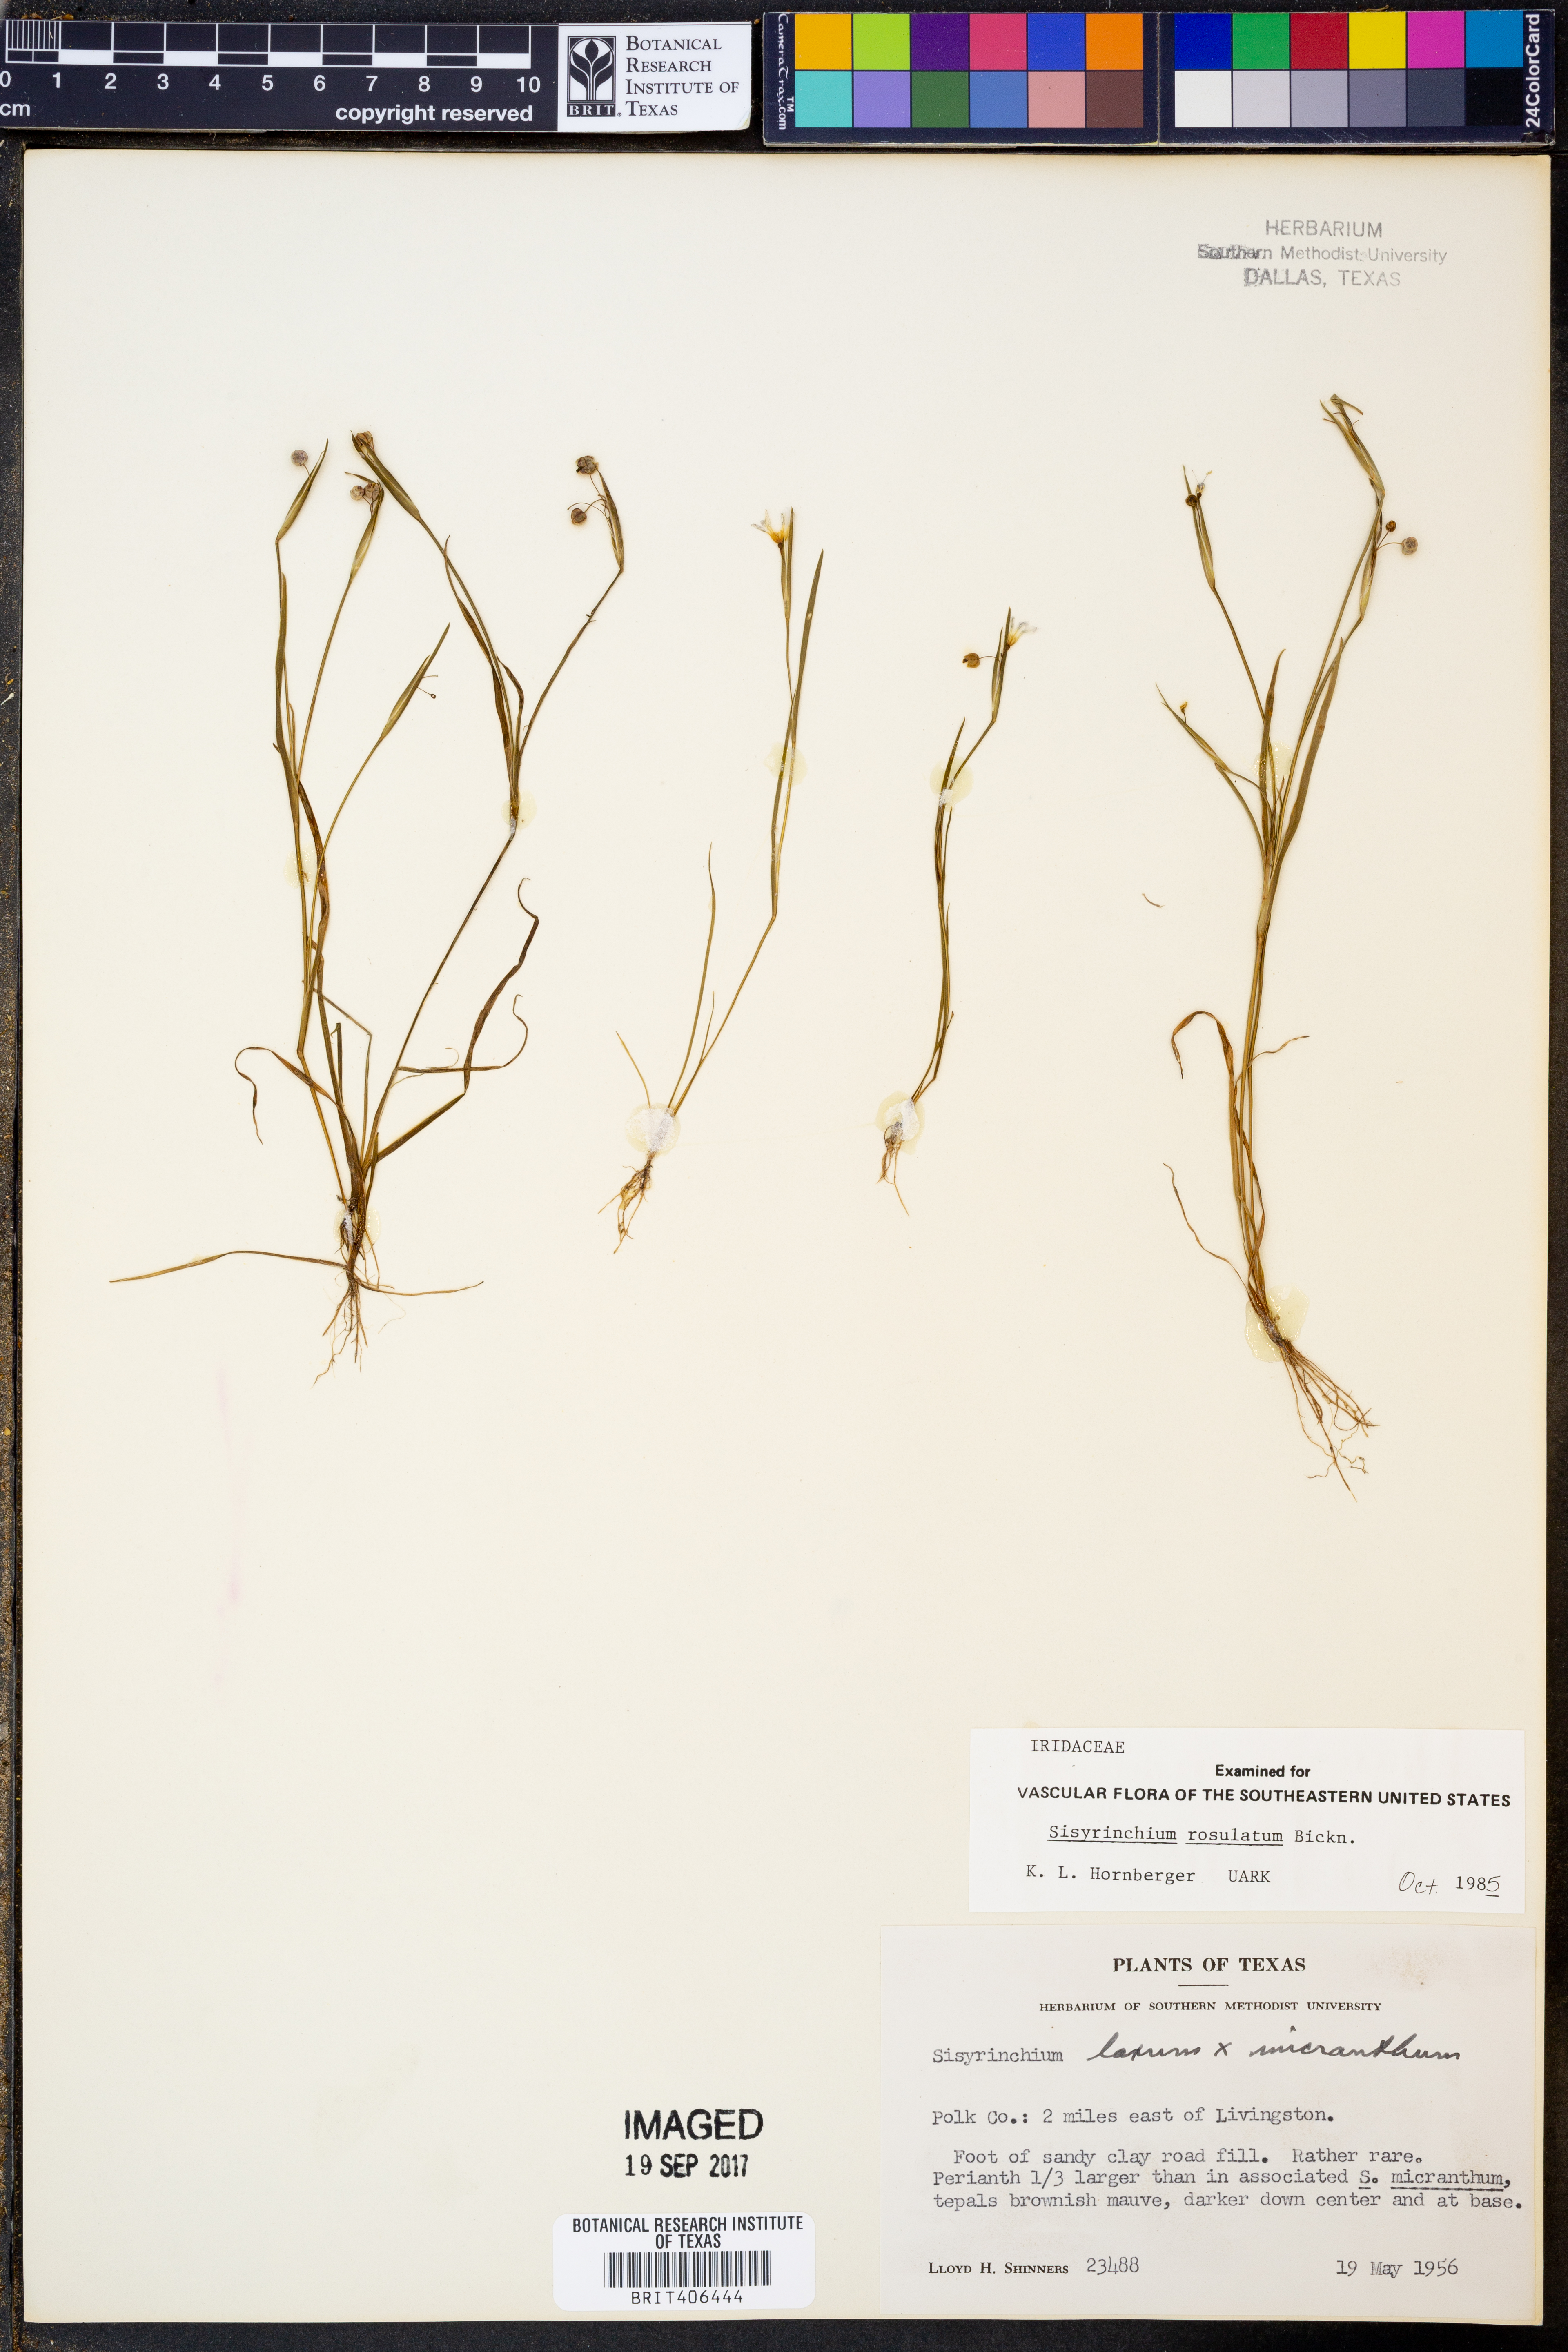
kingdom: Plantae
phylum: Tracheophyta
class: Liliopsida
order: Asparagales
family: Iridaceae
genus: Sisyrinchium
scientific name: Sisyrinchium rosulatum
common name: Annual blue-eyed grass
